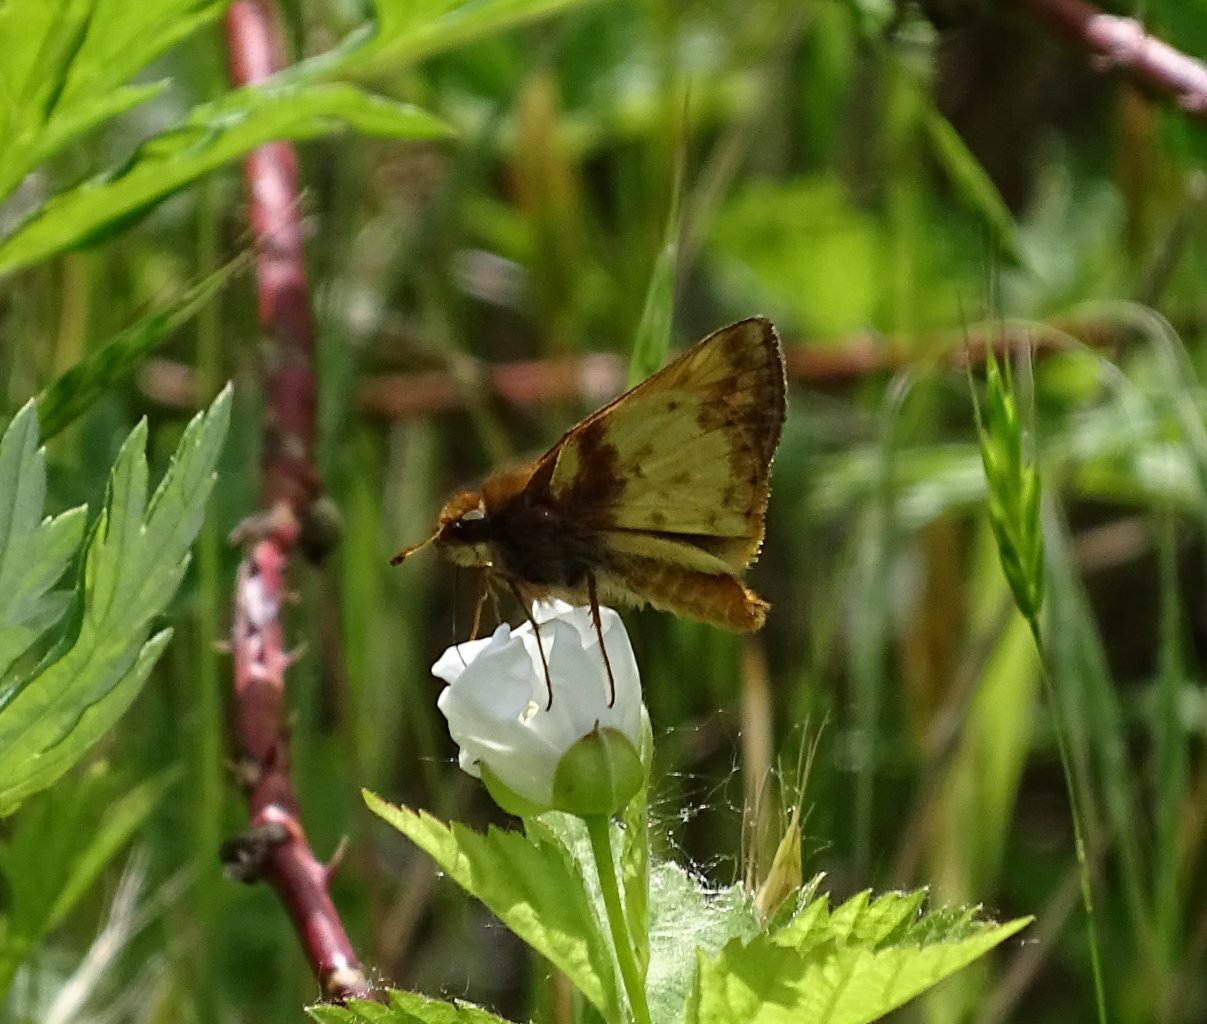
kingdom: Animalia
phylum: Arthropoda
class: Insecta
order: Lepidoptera
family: Hesperiidae
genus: Lon
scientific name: Lon zabulon
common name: Zabulon Skipper
